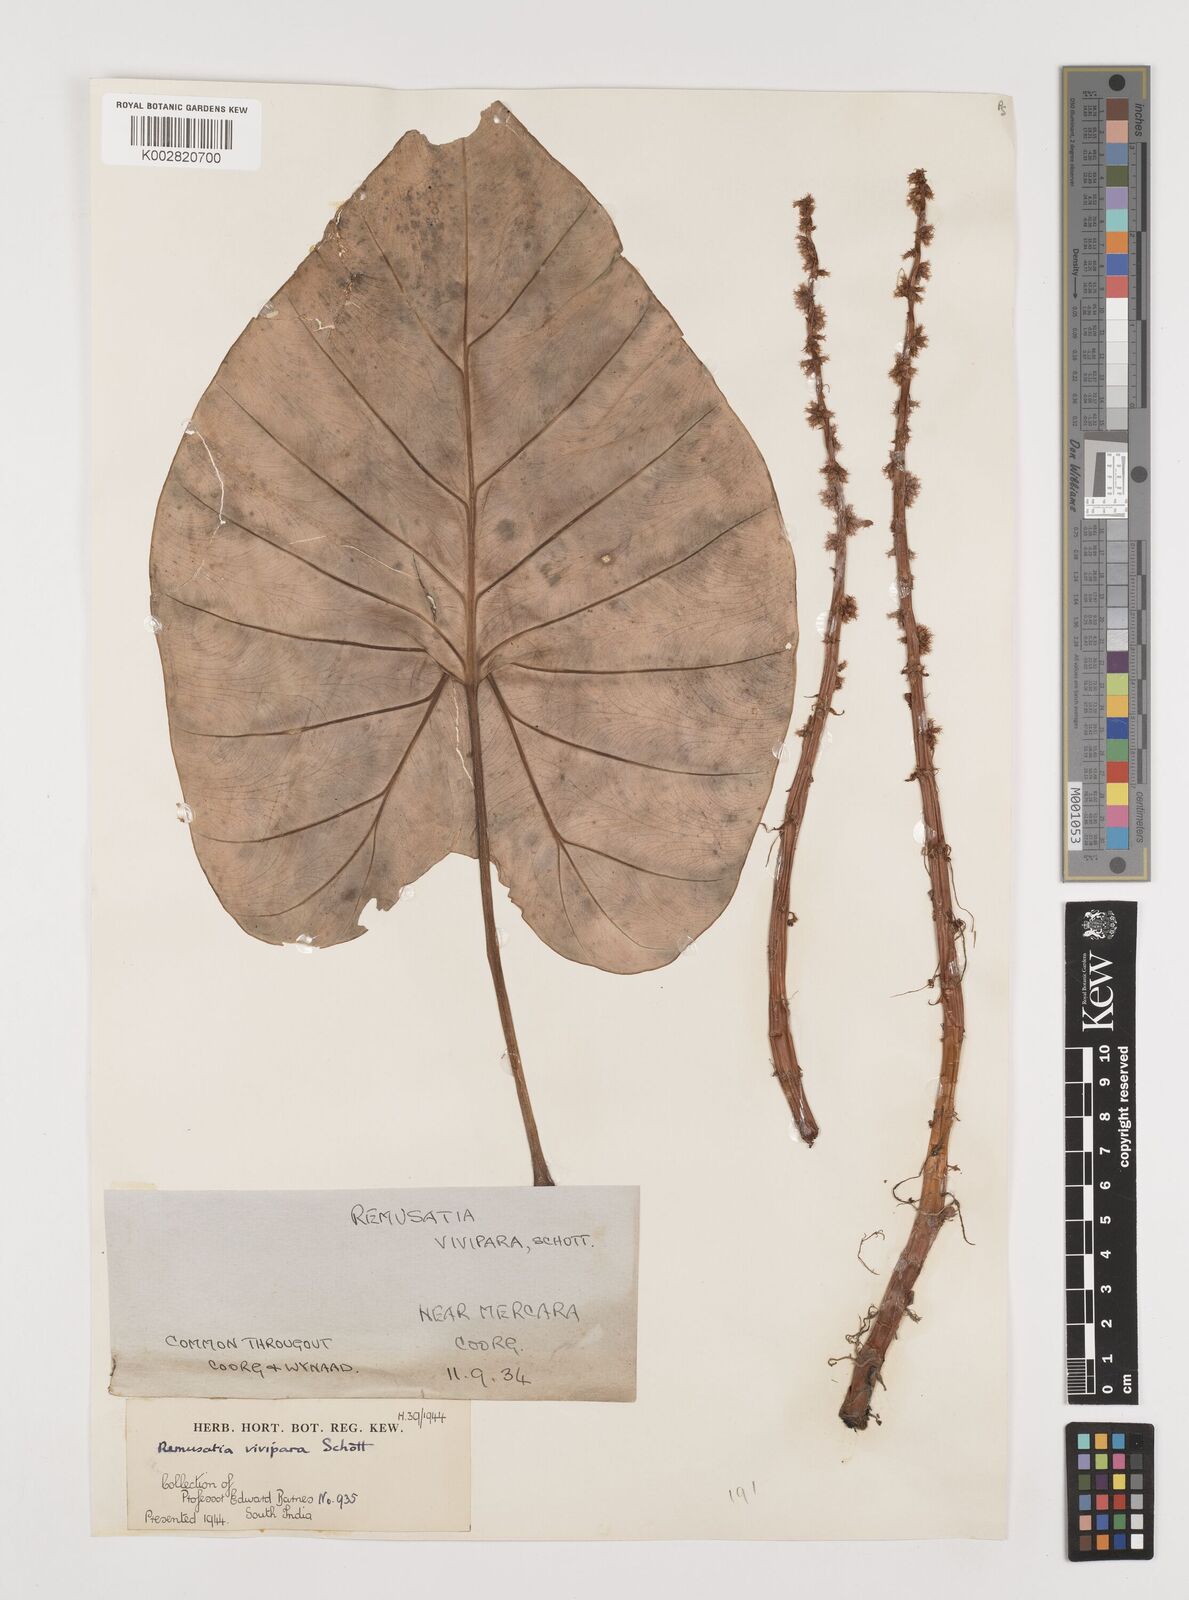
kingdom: Plantae
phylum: Tracheophyta
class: Liliopsida
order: Alismatales
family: Araceae
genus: Remusatia
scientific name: Remusatia vivipara
